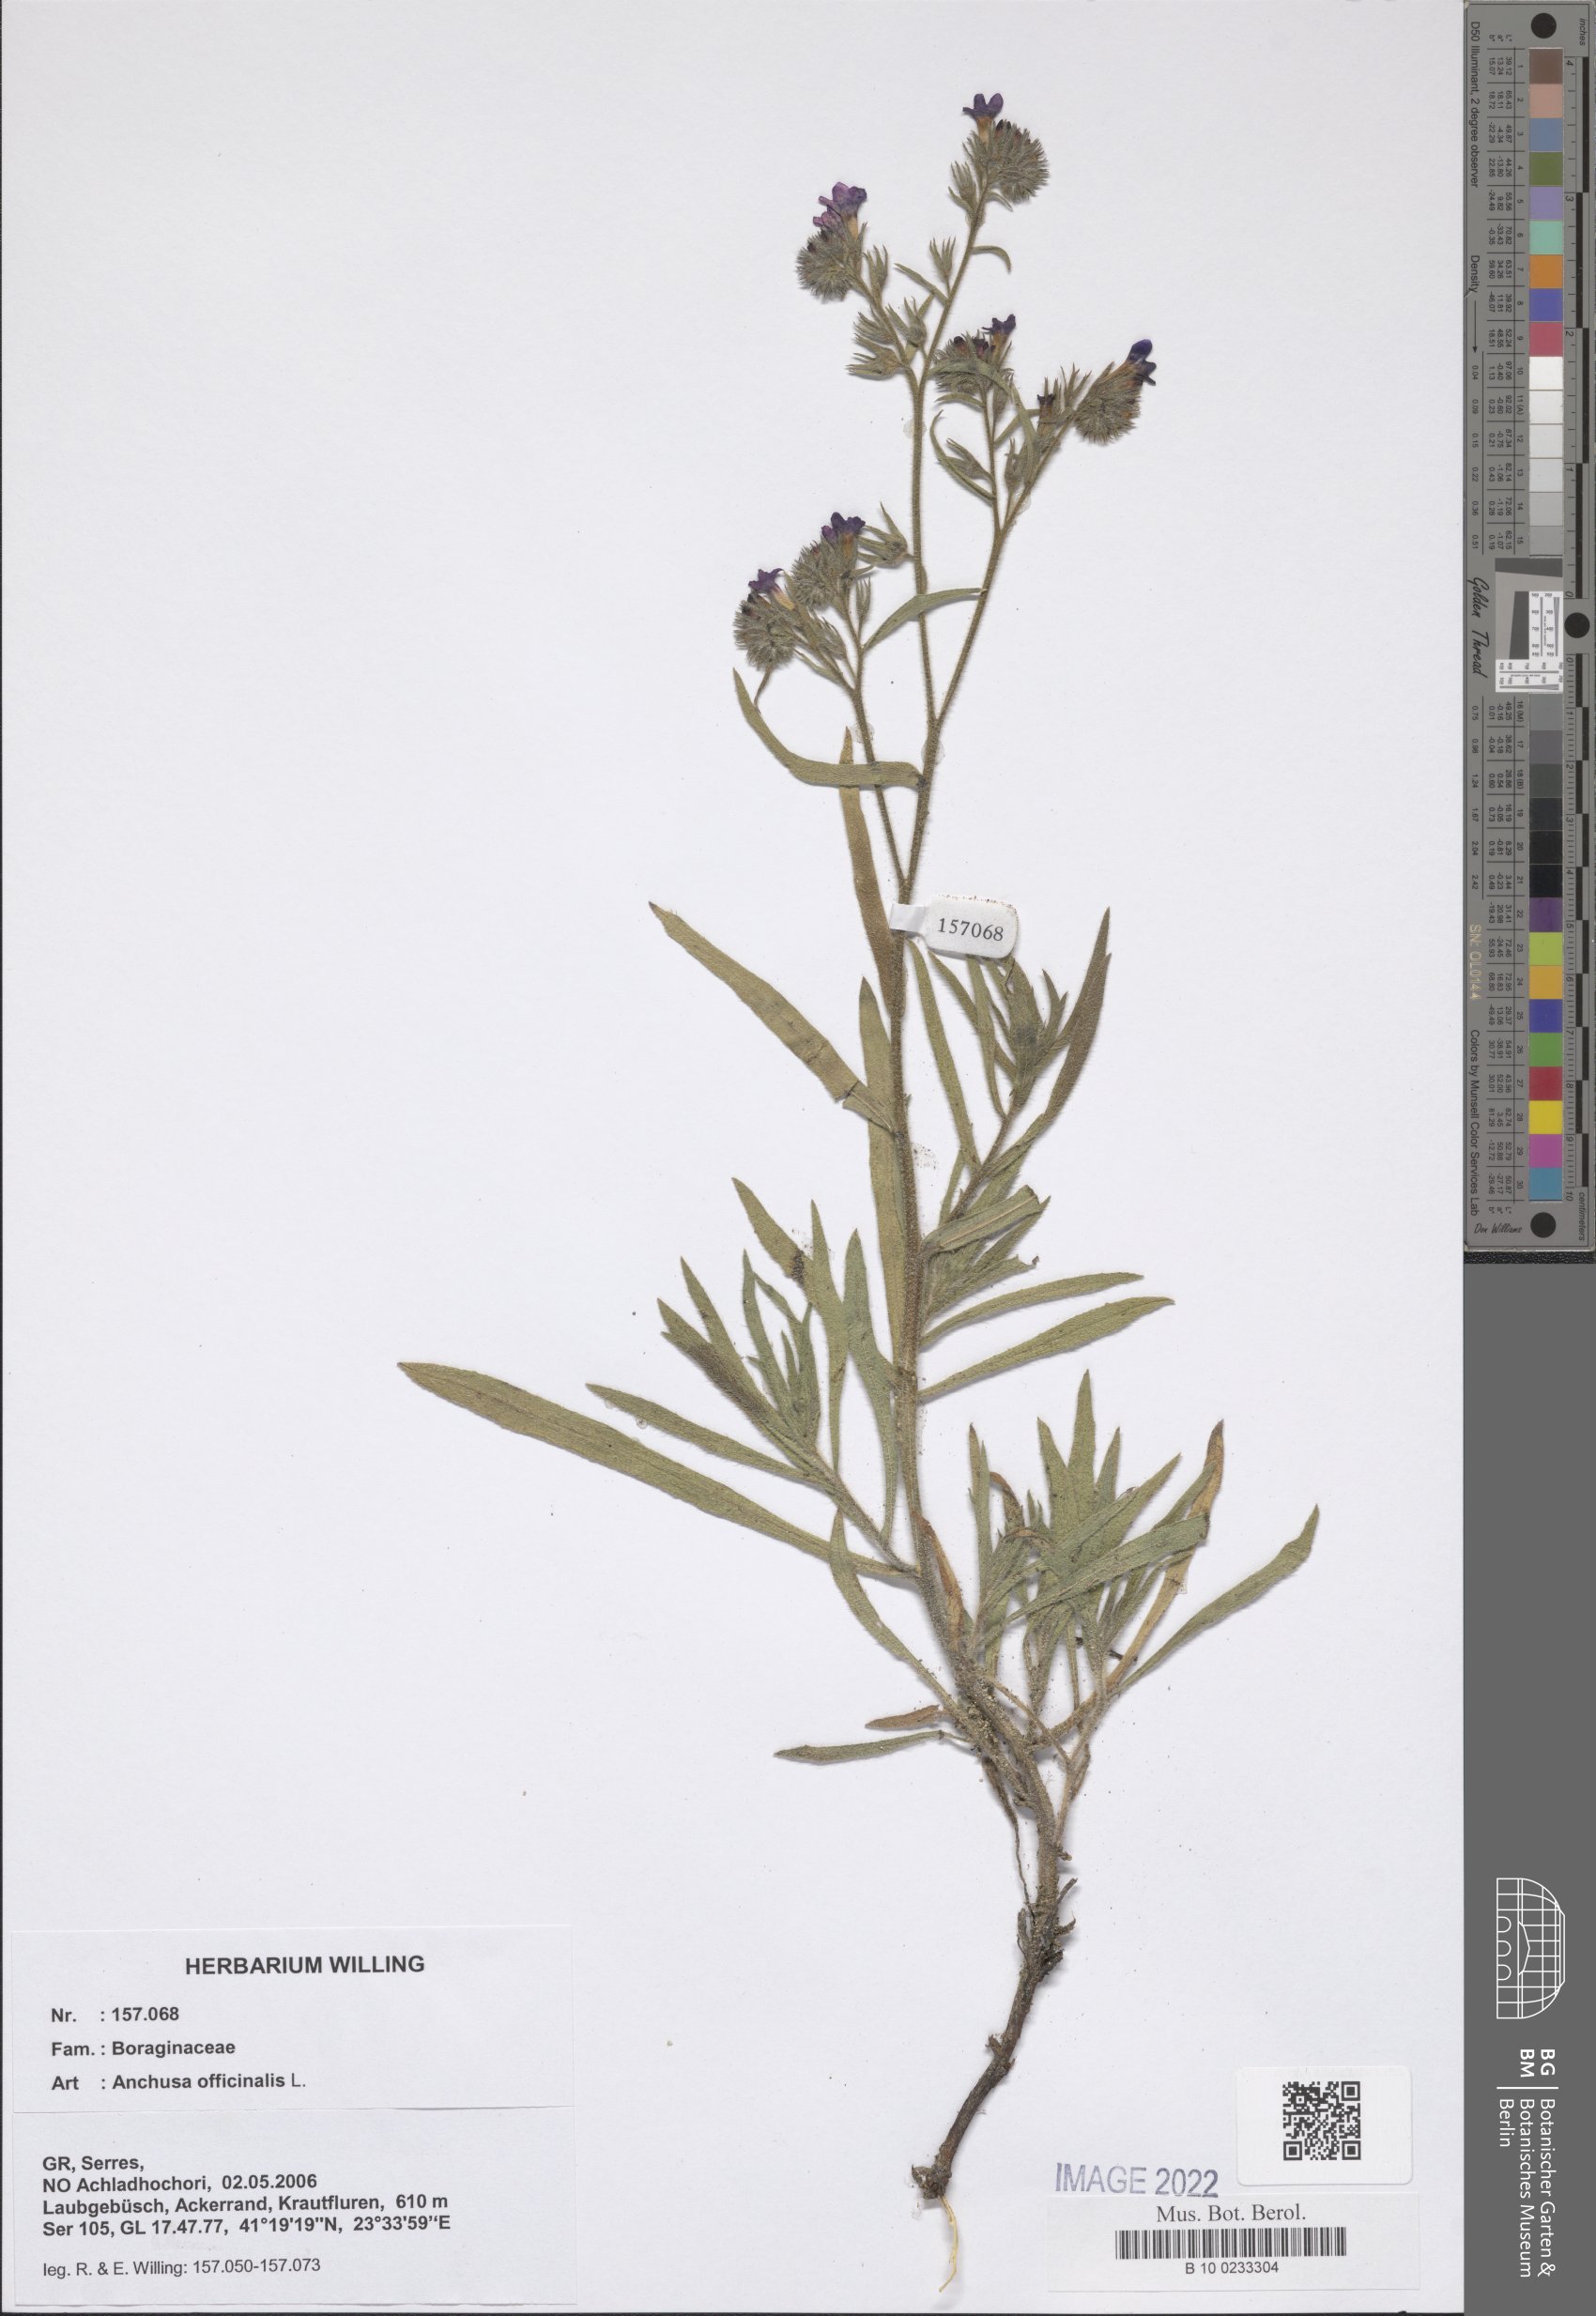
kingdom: Plantae
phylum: Tracheophyta
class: Magnoliopsida
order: Boraginales
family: Boraginaceae
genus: Anchusa
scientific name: Anchusa officinalis
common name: Alkanet
